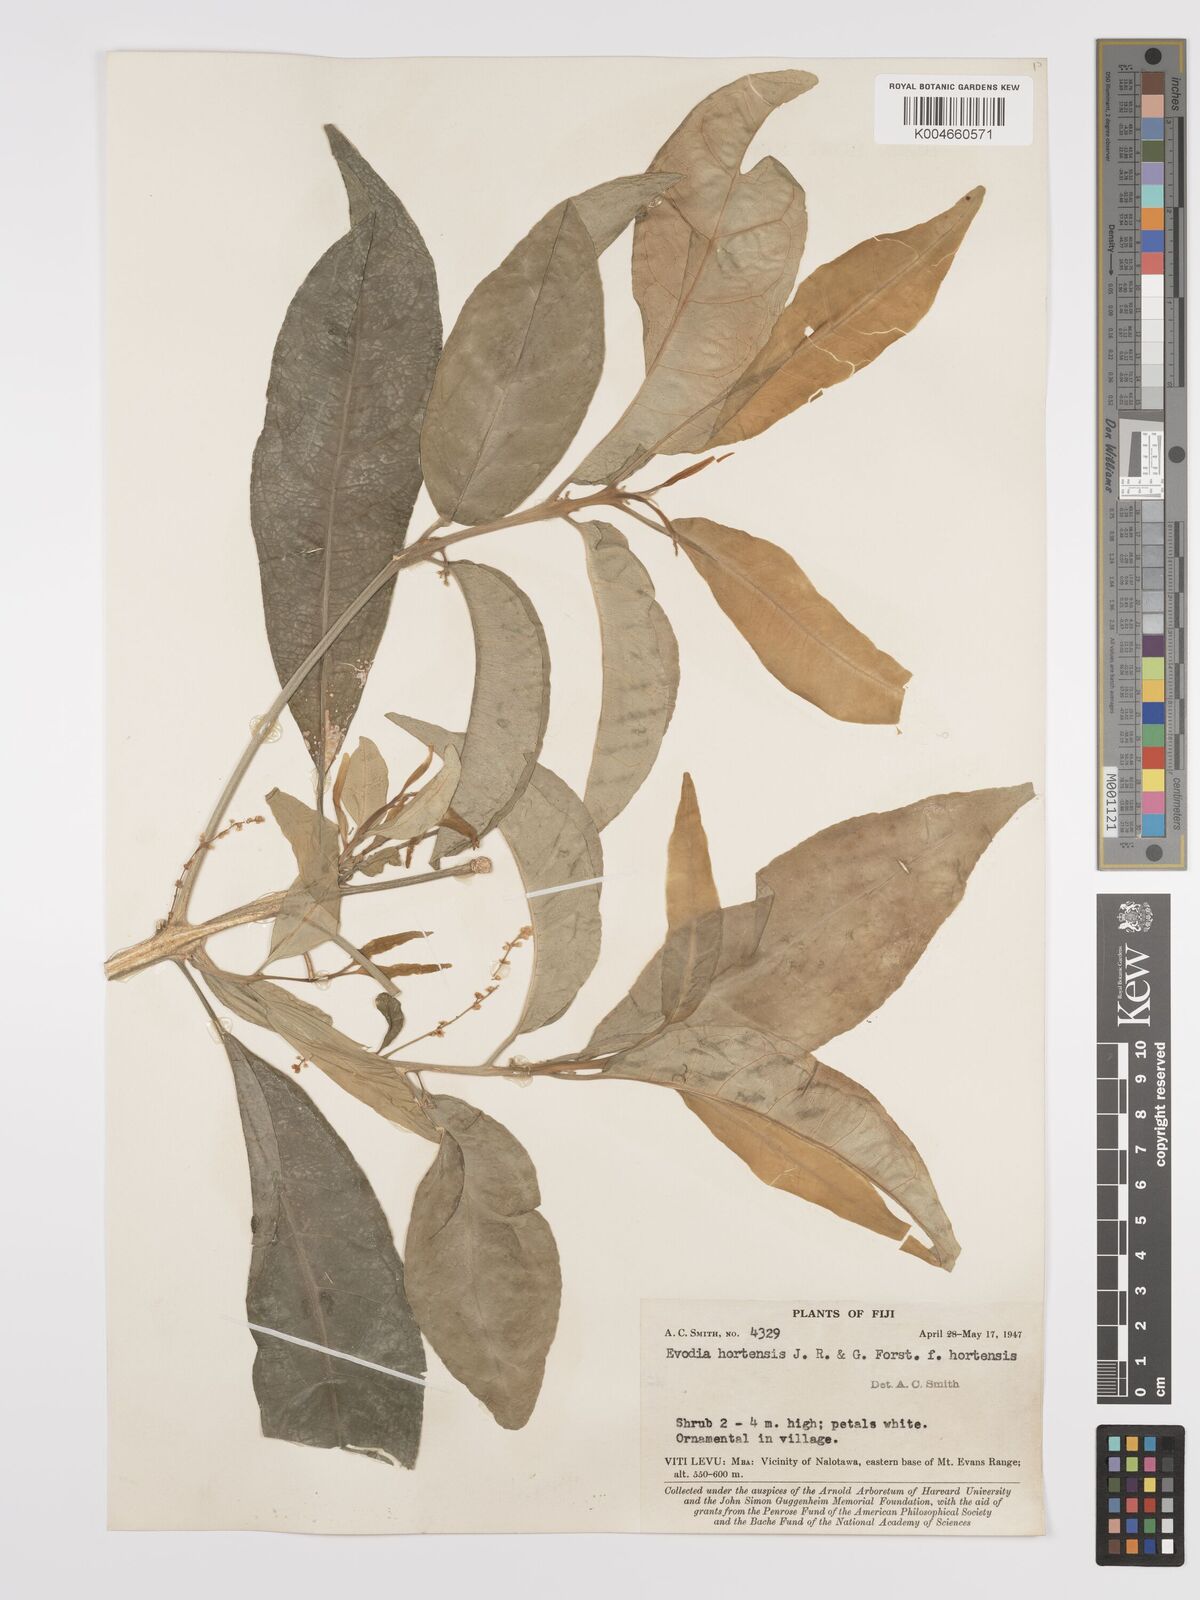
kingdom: Plantae
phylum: Tracheophyta
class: Magnoliopsida
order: Sapindales
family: Rutaceae
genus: Euodia
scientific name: Euodia hortensis
